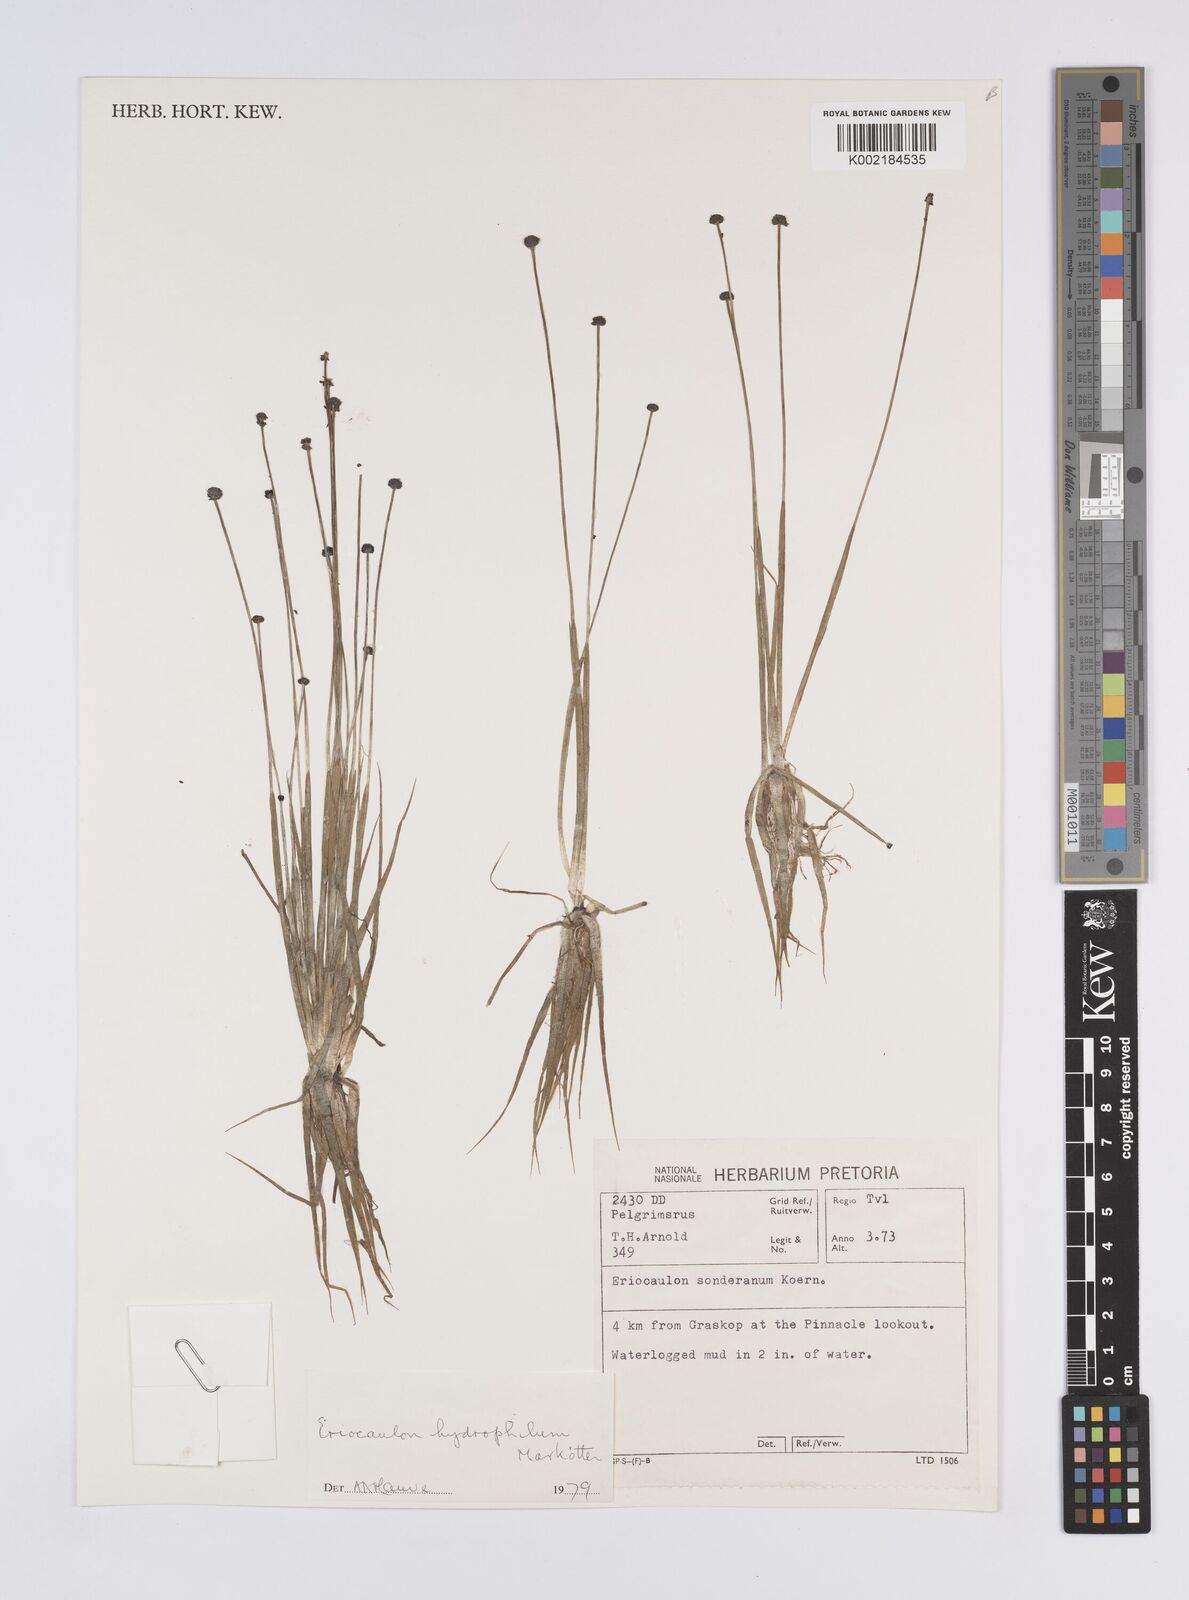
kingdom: Plantae
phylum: Tracheophyta
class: Liliopsida
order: Poales
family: Eriocaulaceae
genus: Eriocaulon
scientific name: Eriocaulon hydrophilum
